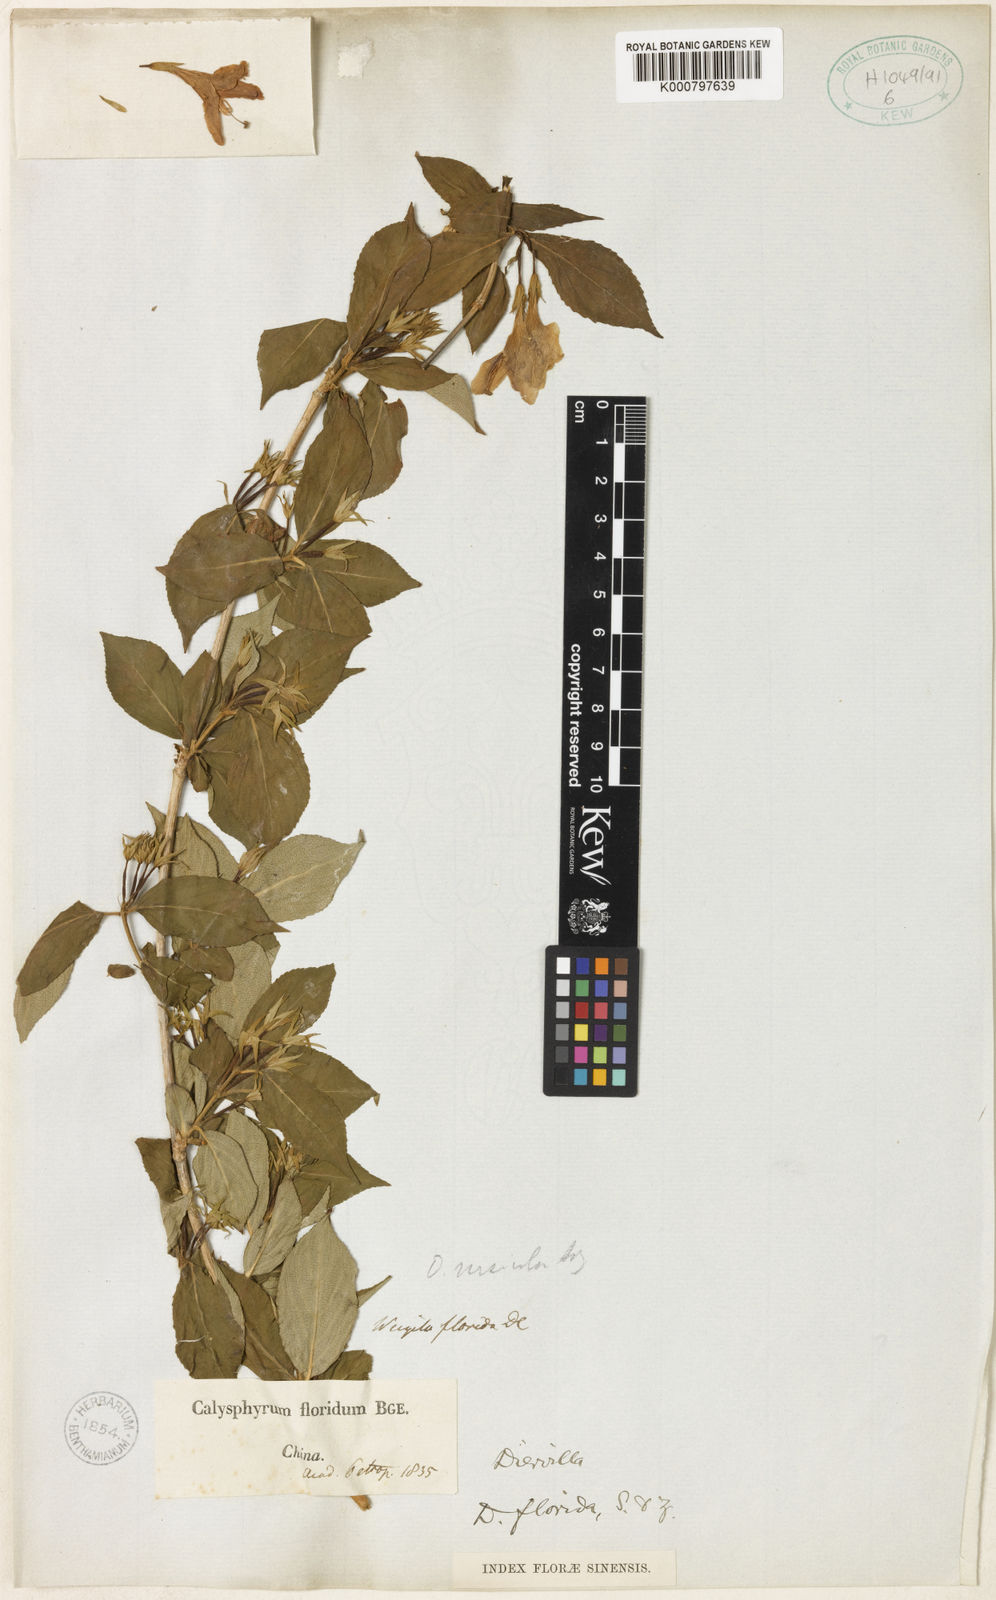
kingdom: Plantae
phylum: Tracheophyta
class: Magnoliopsida
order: Dipsacales
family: Caprifoliaceae
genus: Weigela
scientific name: Weigela florida
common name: Weigelia
